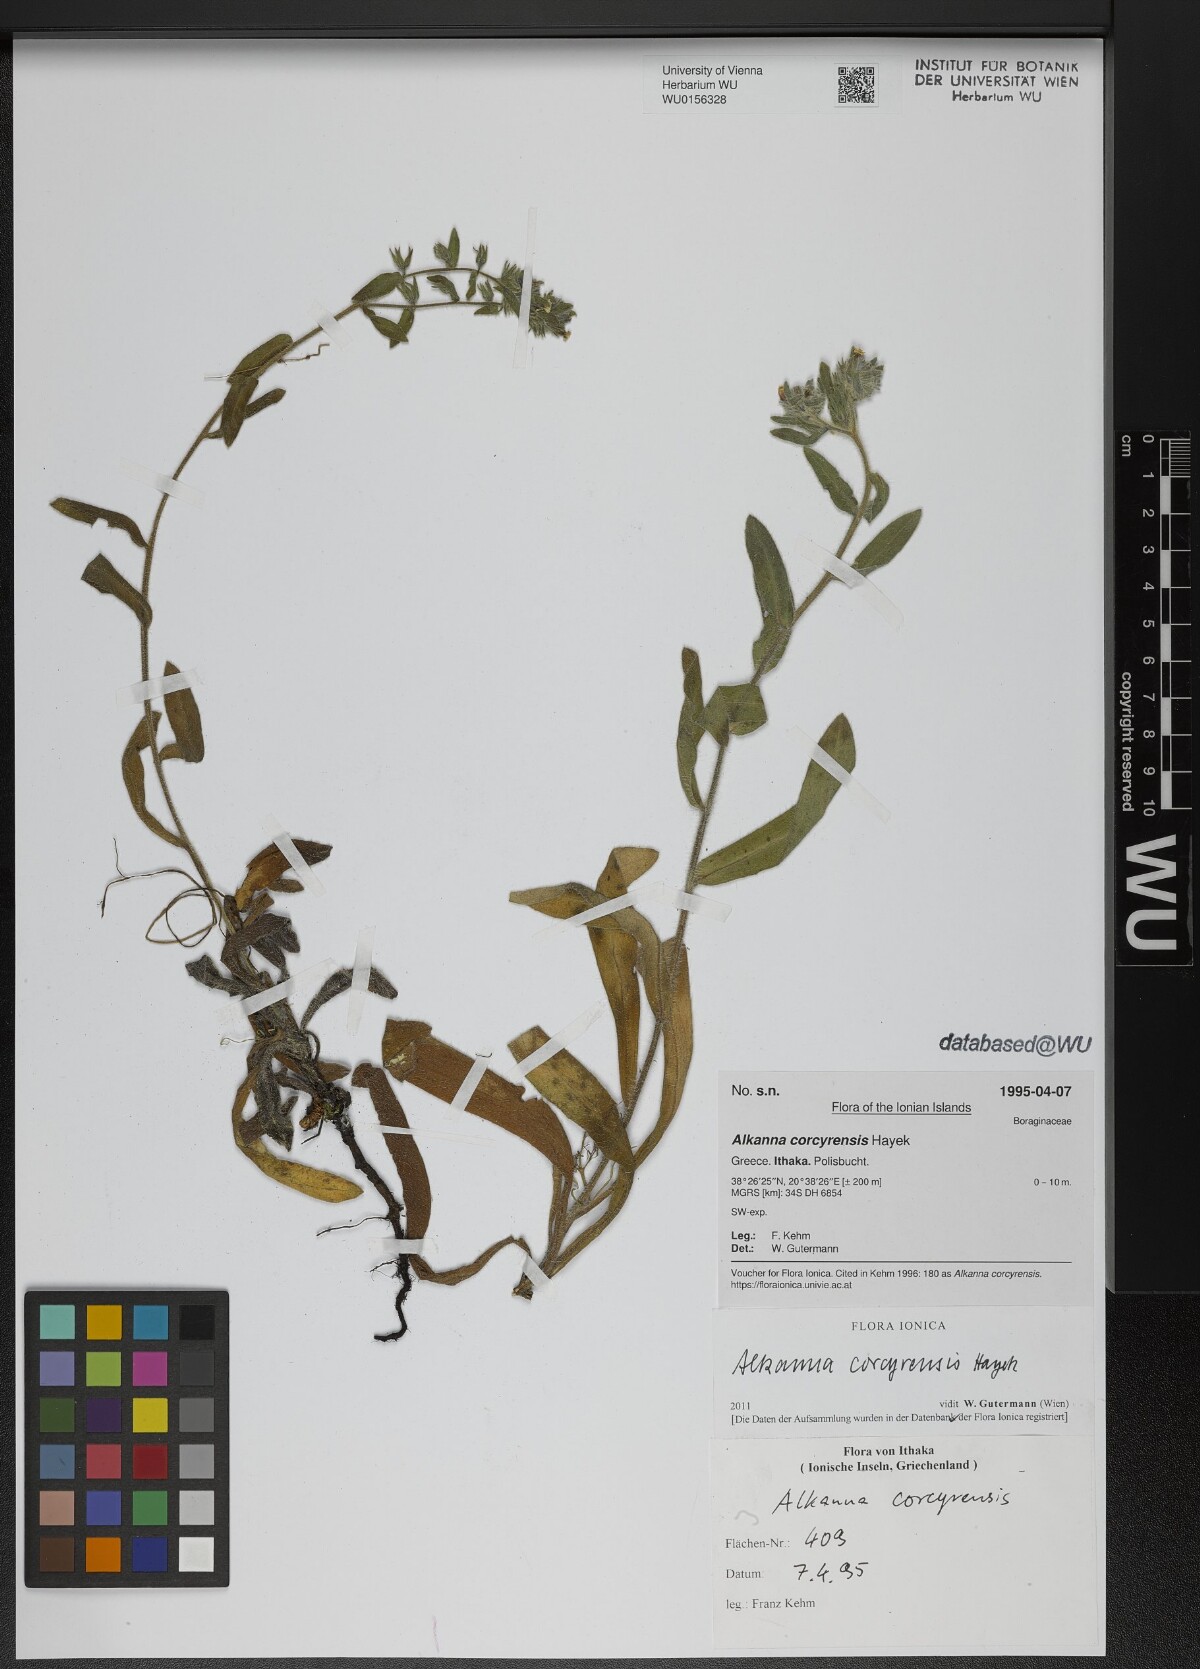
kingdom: Plantae
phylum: Tracheophyta
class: Magnoliopsida
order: Boraginales
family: Boraginaceae
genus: Alkanna
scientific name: Alkanna corcyrensis
